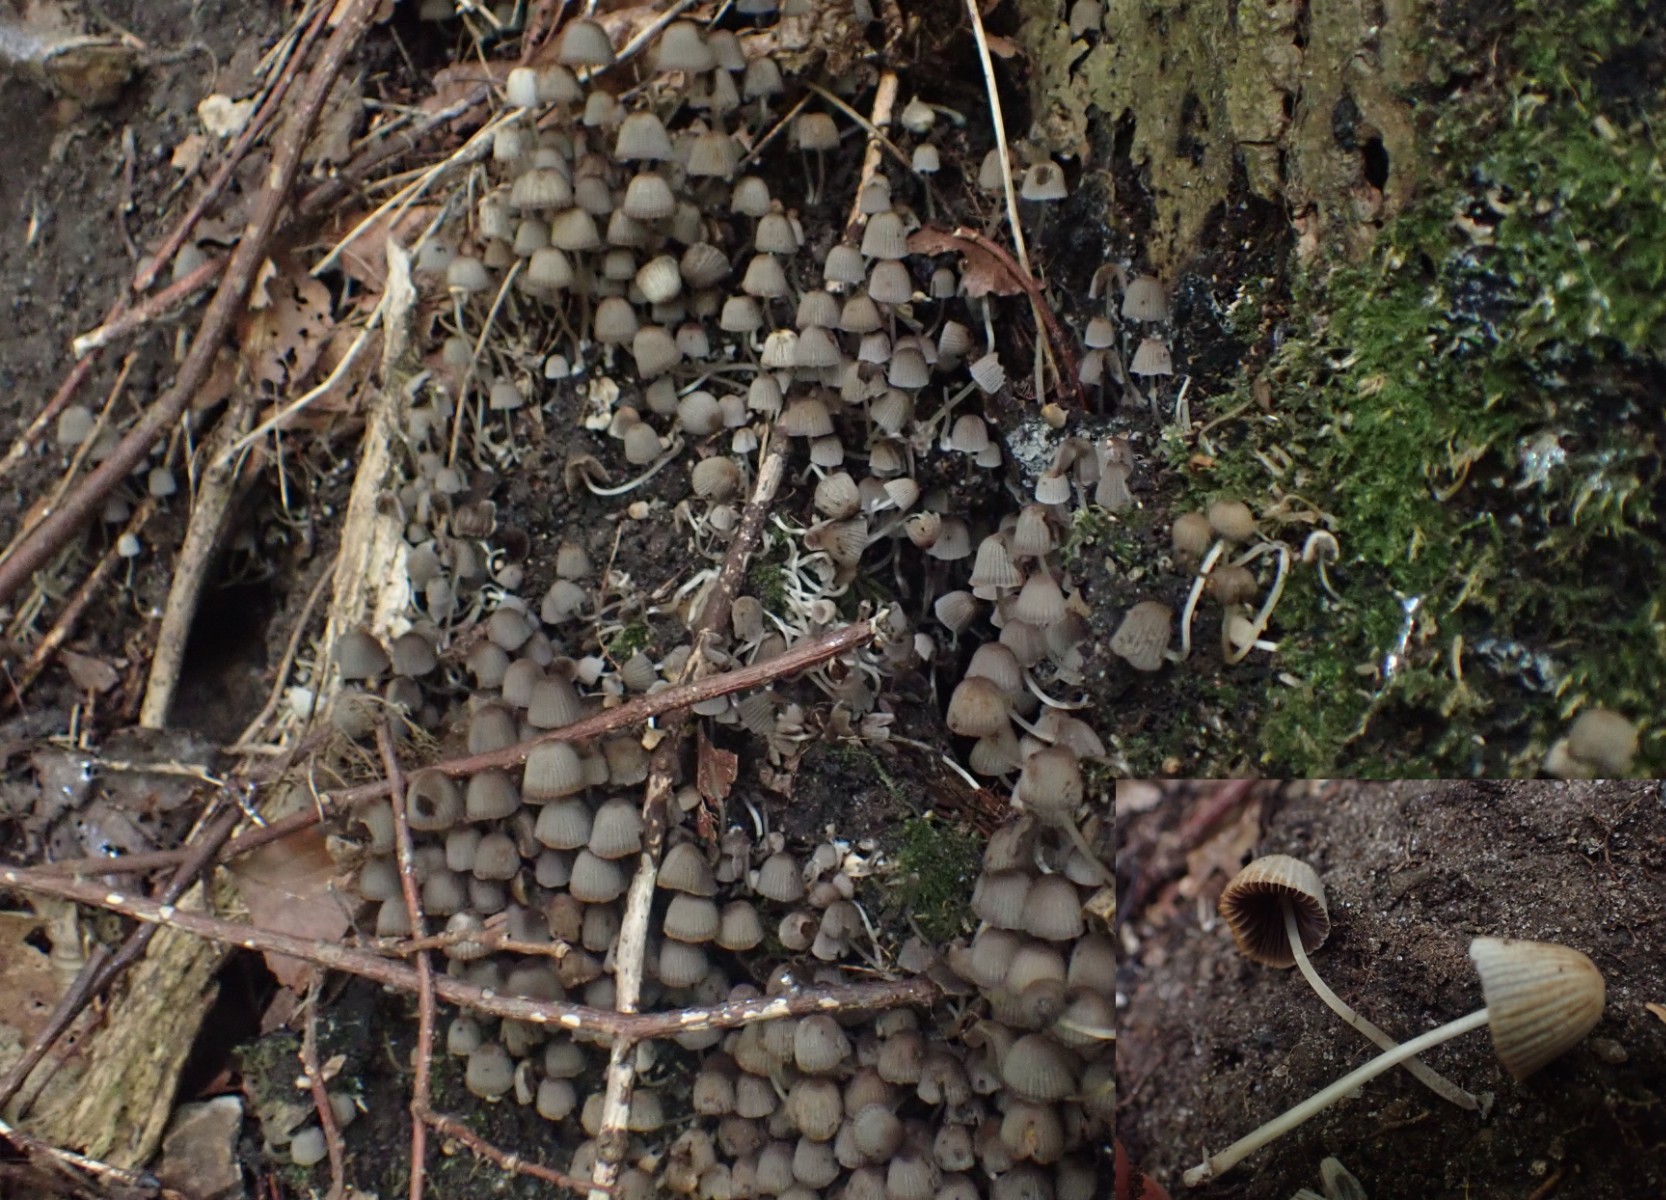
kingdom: Fungi
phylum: Basidiomycota
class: Agaricomycetes
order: Agaricales
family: Psathyrellaceae
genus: Coprinellus
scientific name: Coprinellus disseminatus
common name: bredsået blækhat
